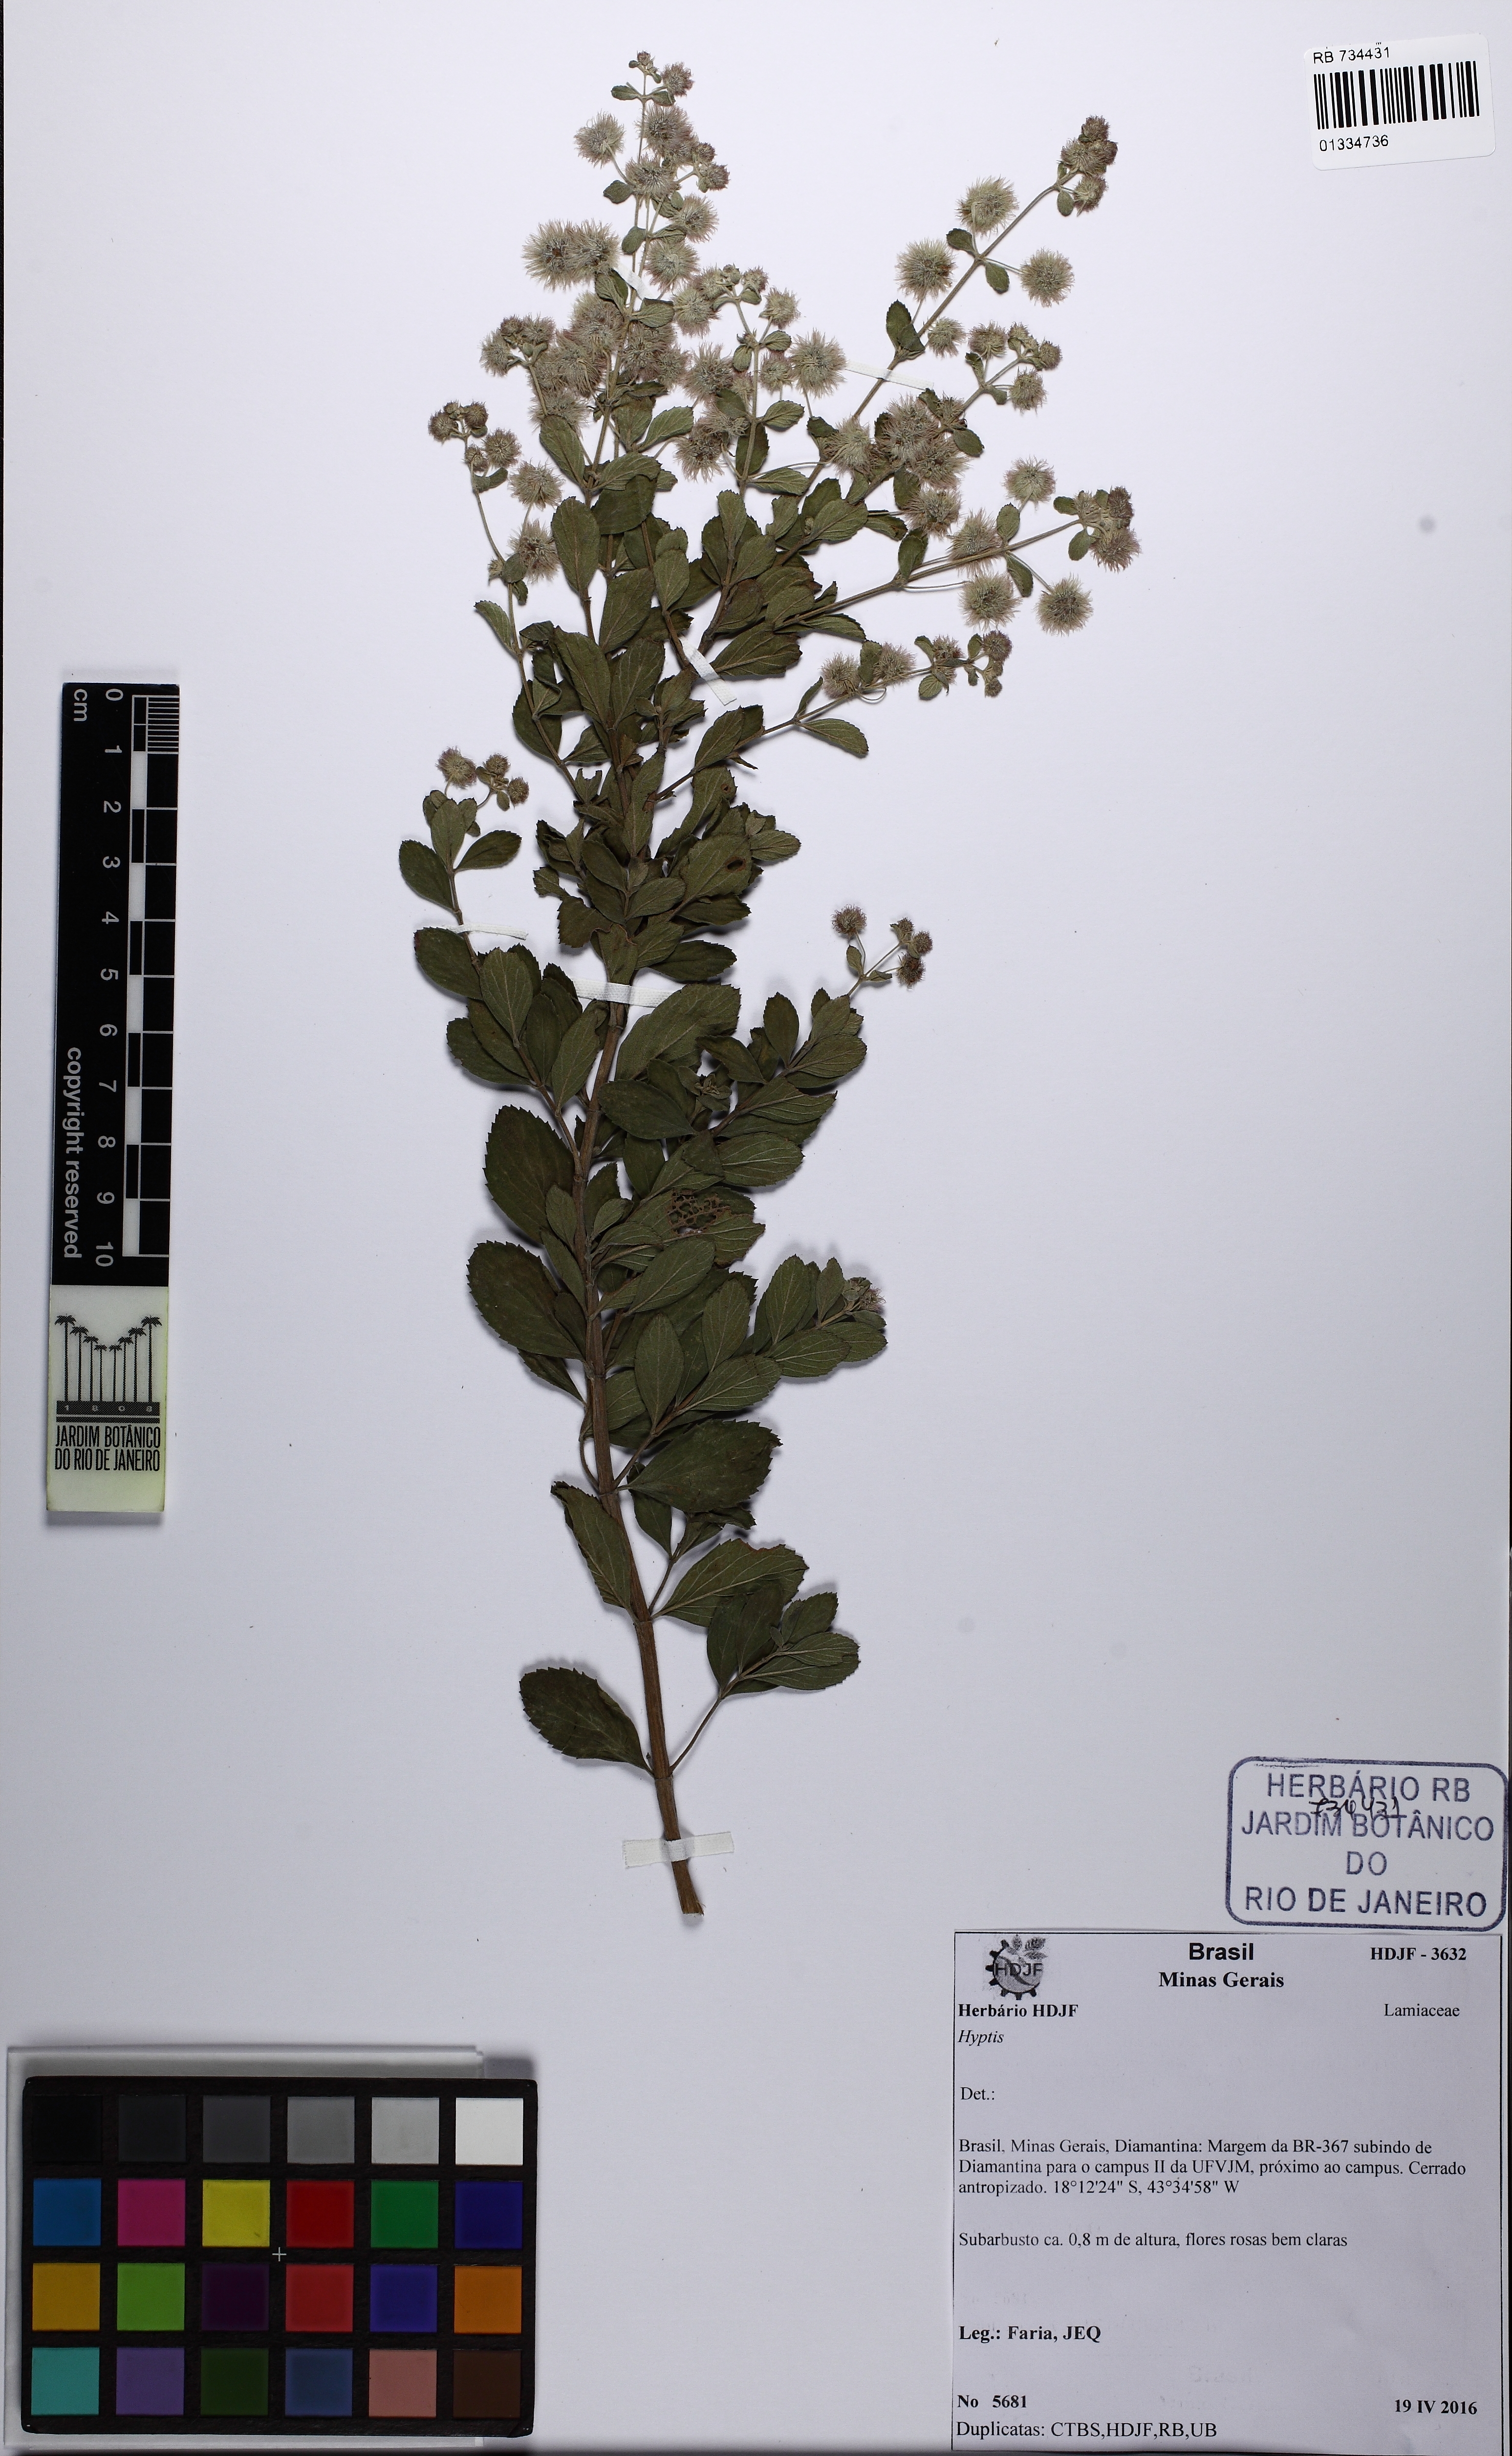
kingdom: Plantae
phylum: Tracheophyta
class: Magnoliopsida
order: Lamiales
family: Lamiaceae
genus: Medusantha
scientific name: Medusantha
